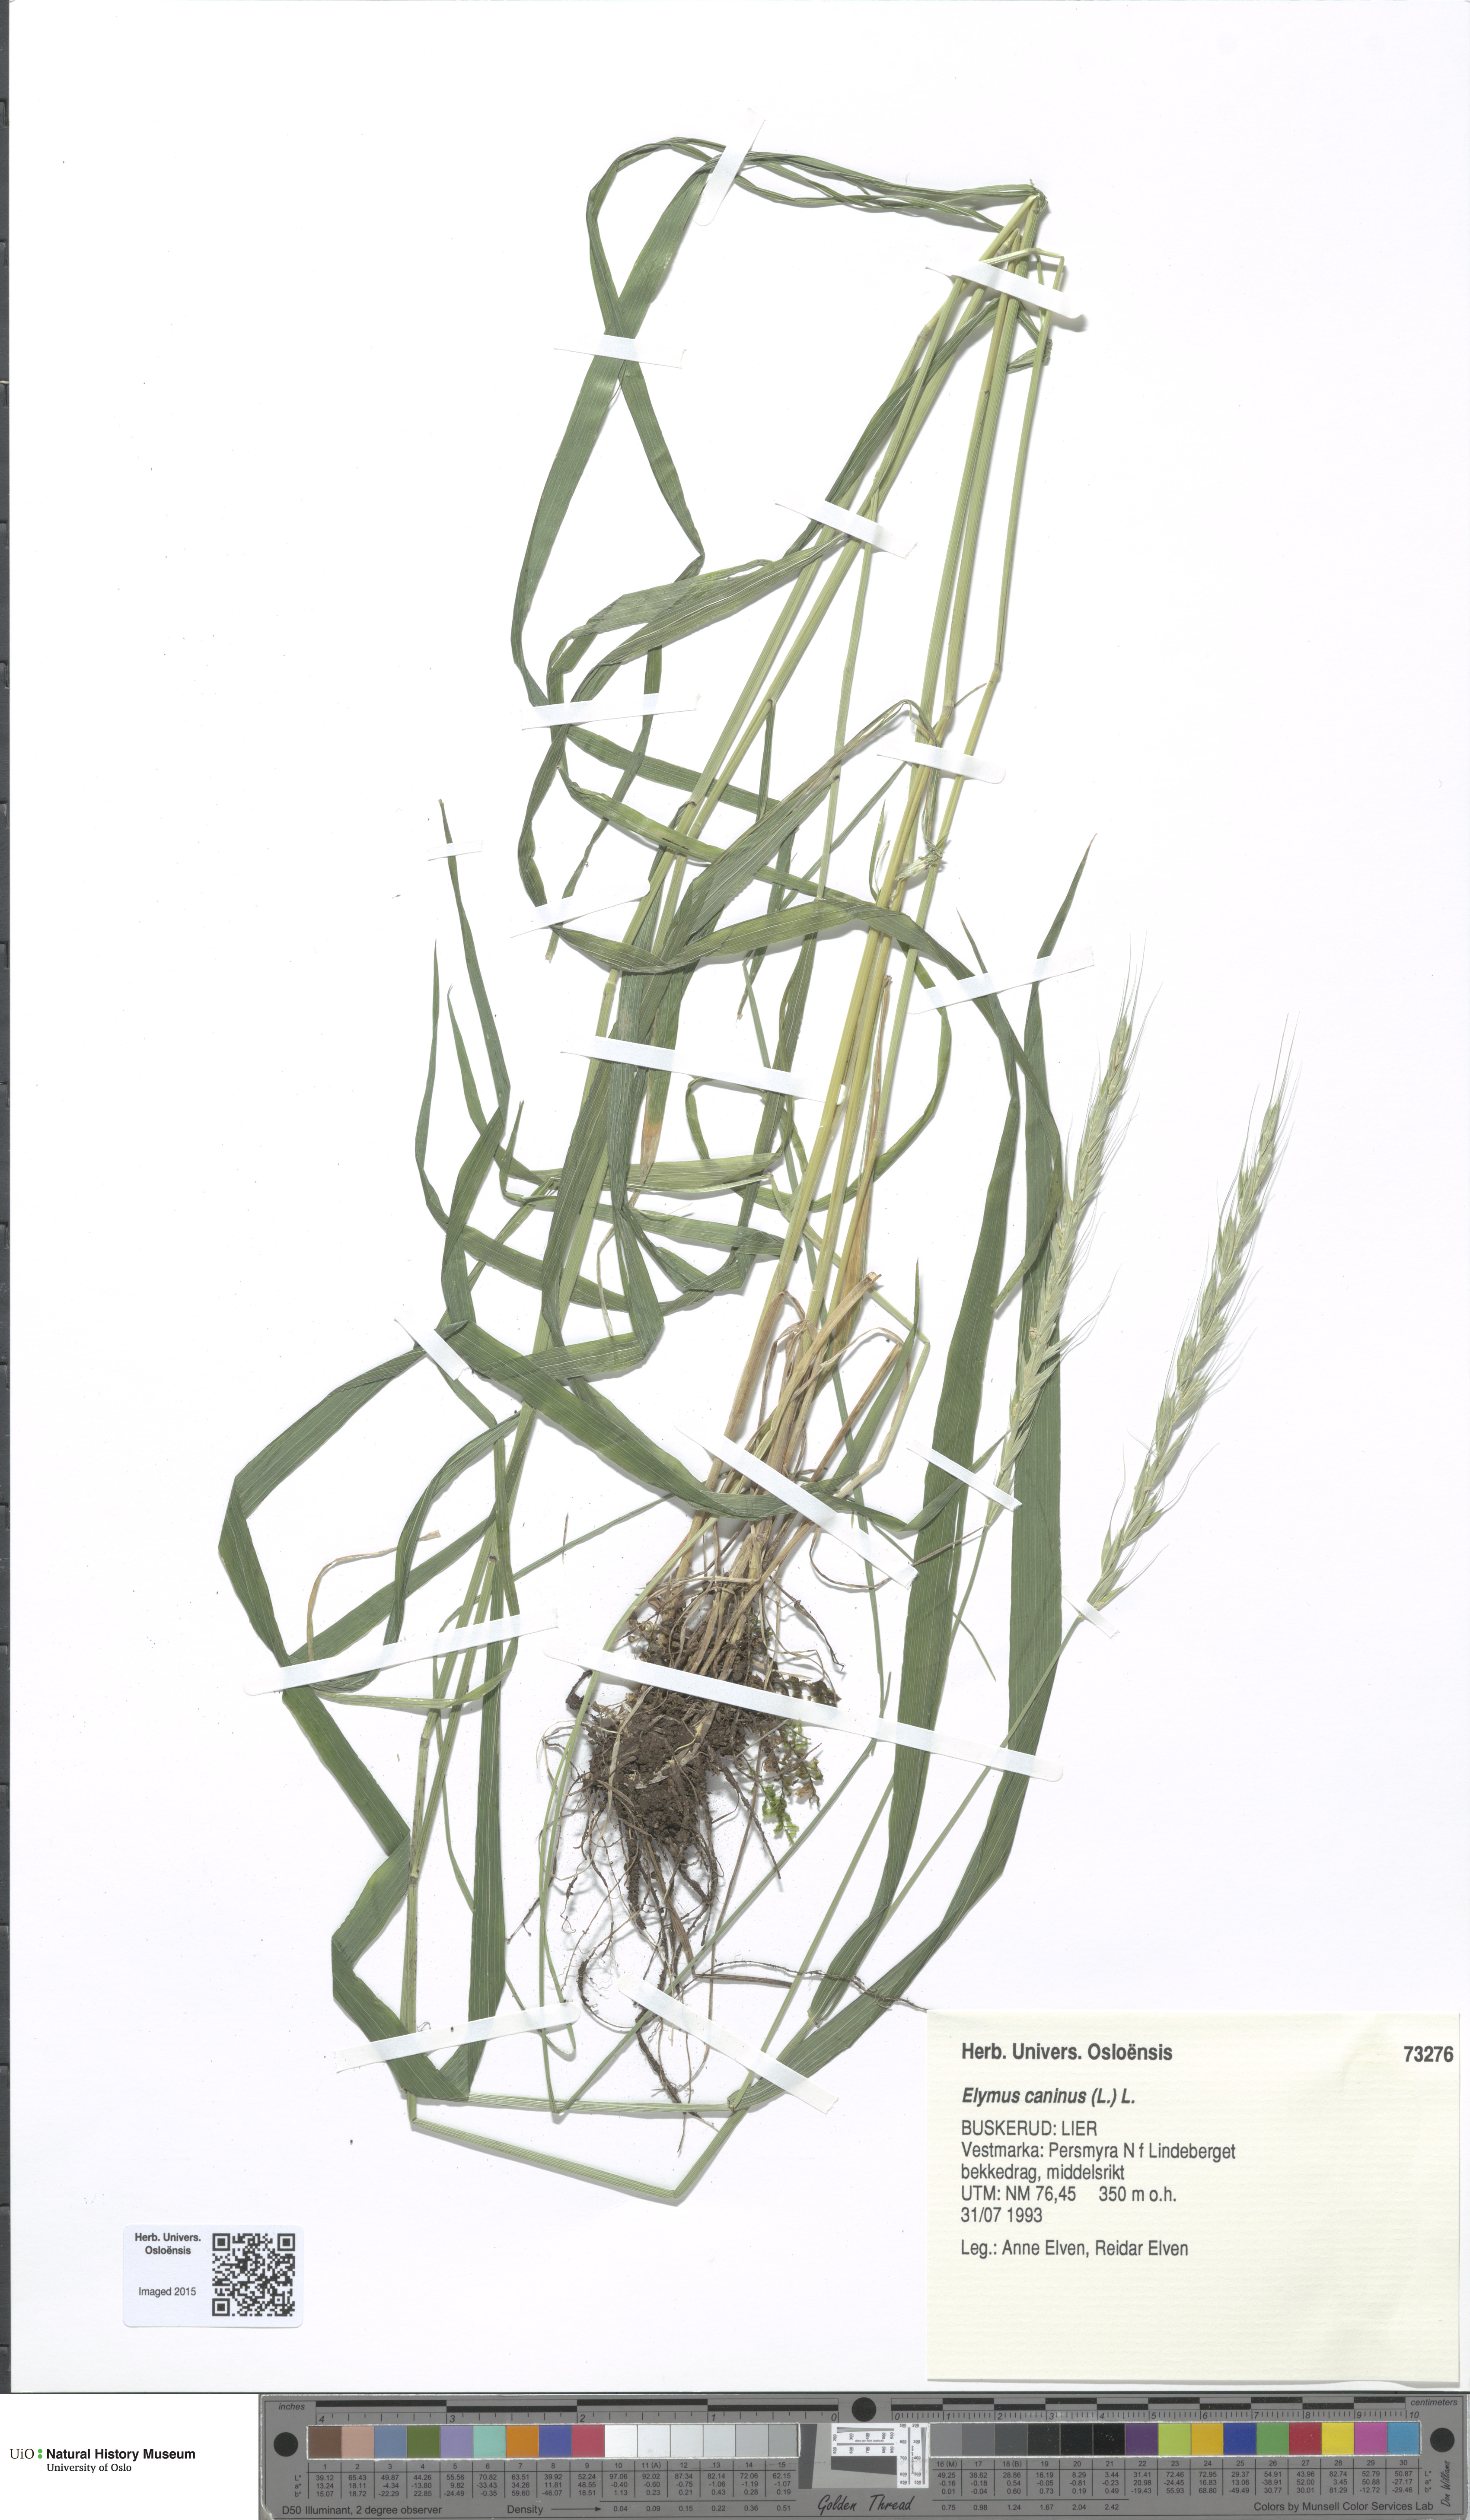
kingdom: Plantae
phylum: Tracheophyta
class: Liliopsida
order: Poales
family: Poaceae
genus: Elymus
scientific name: Elymus caninus
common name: Bearded couch
